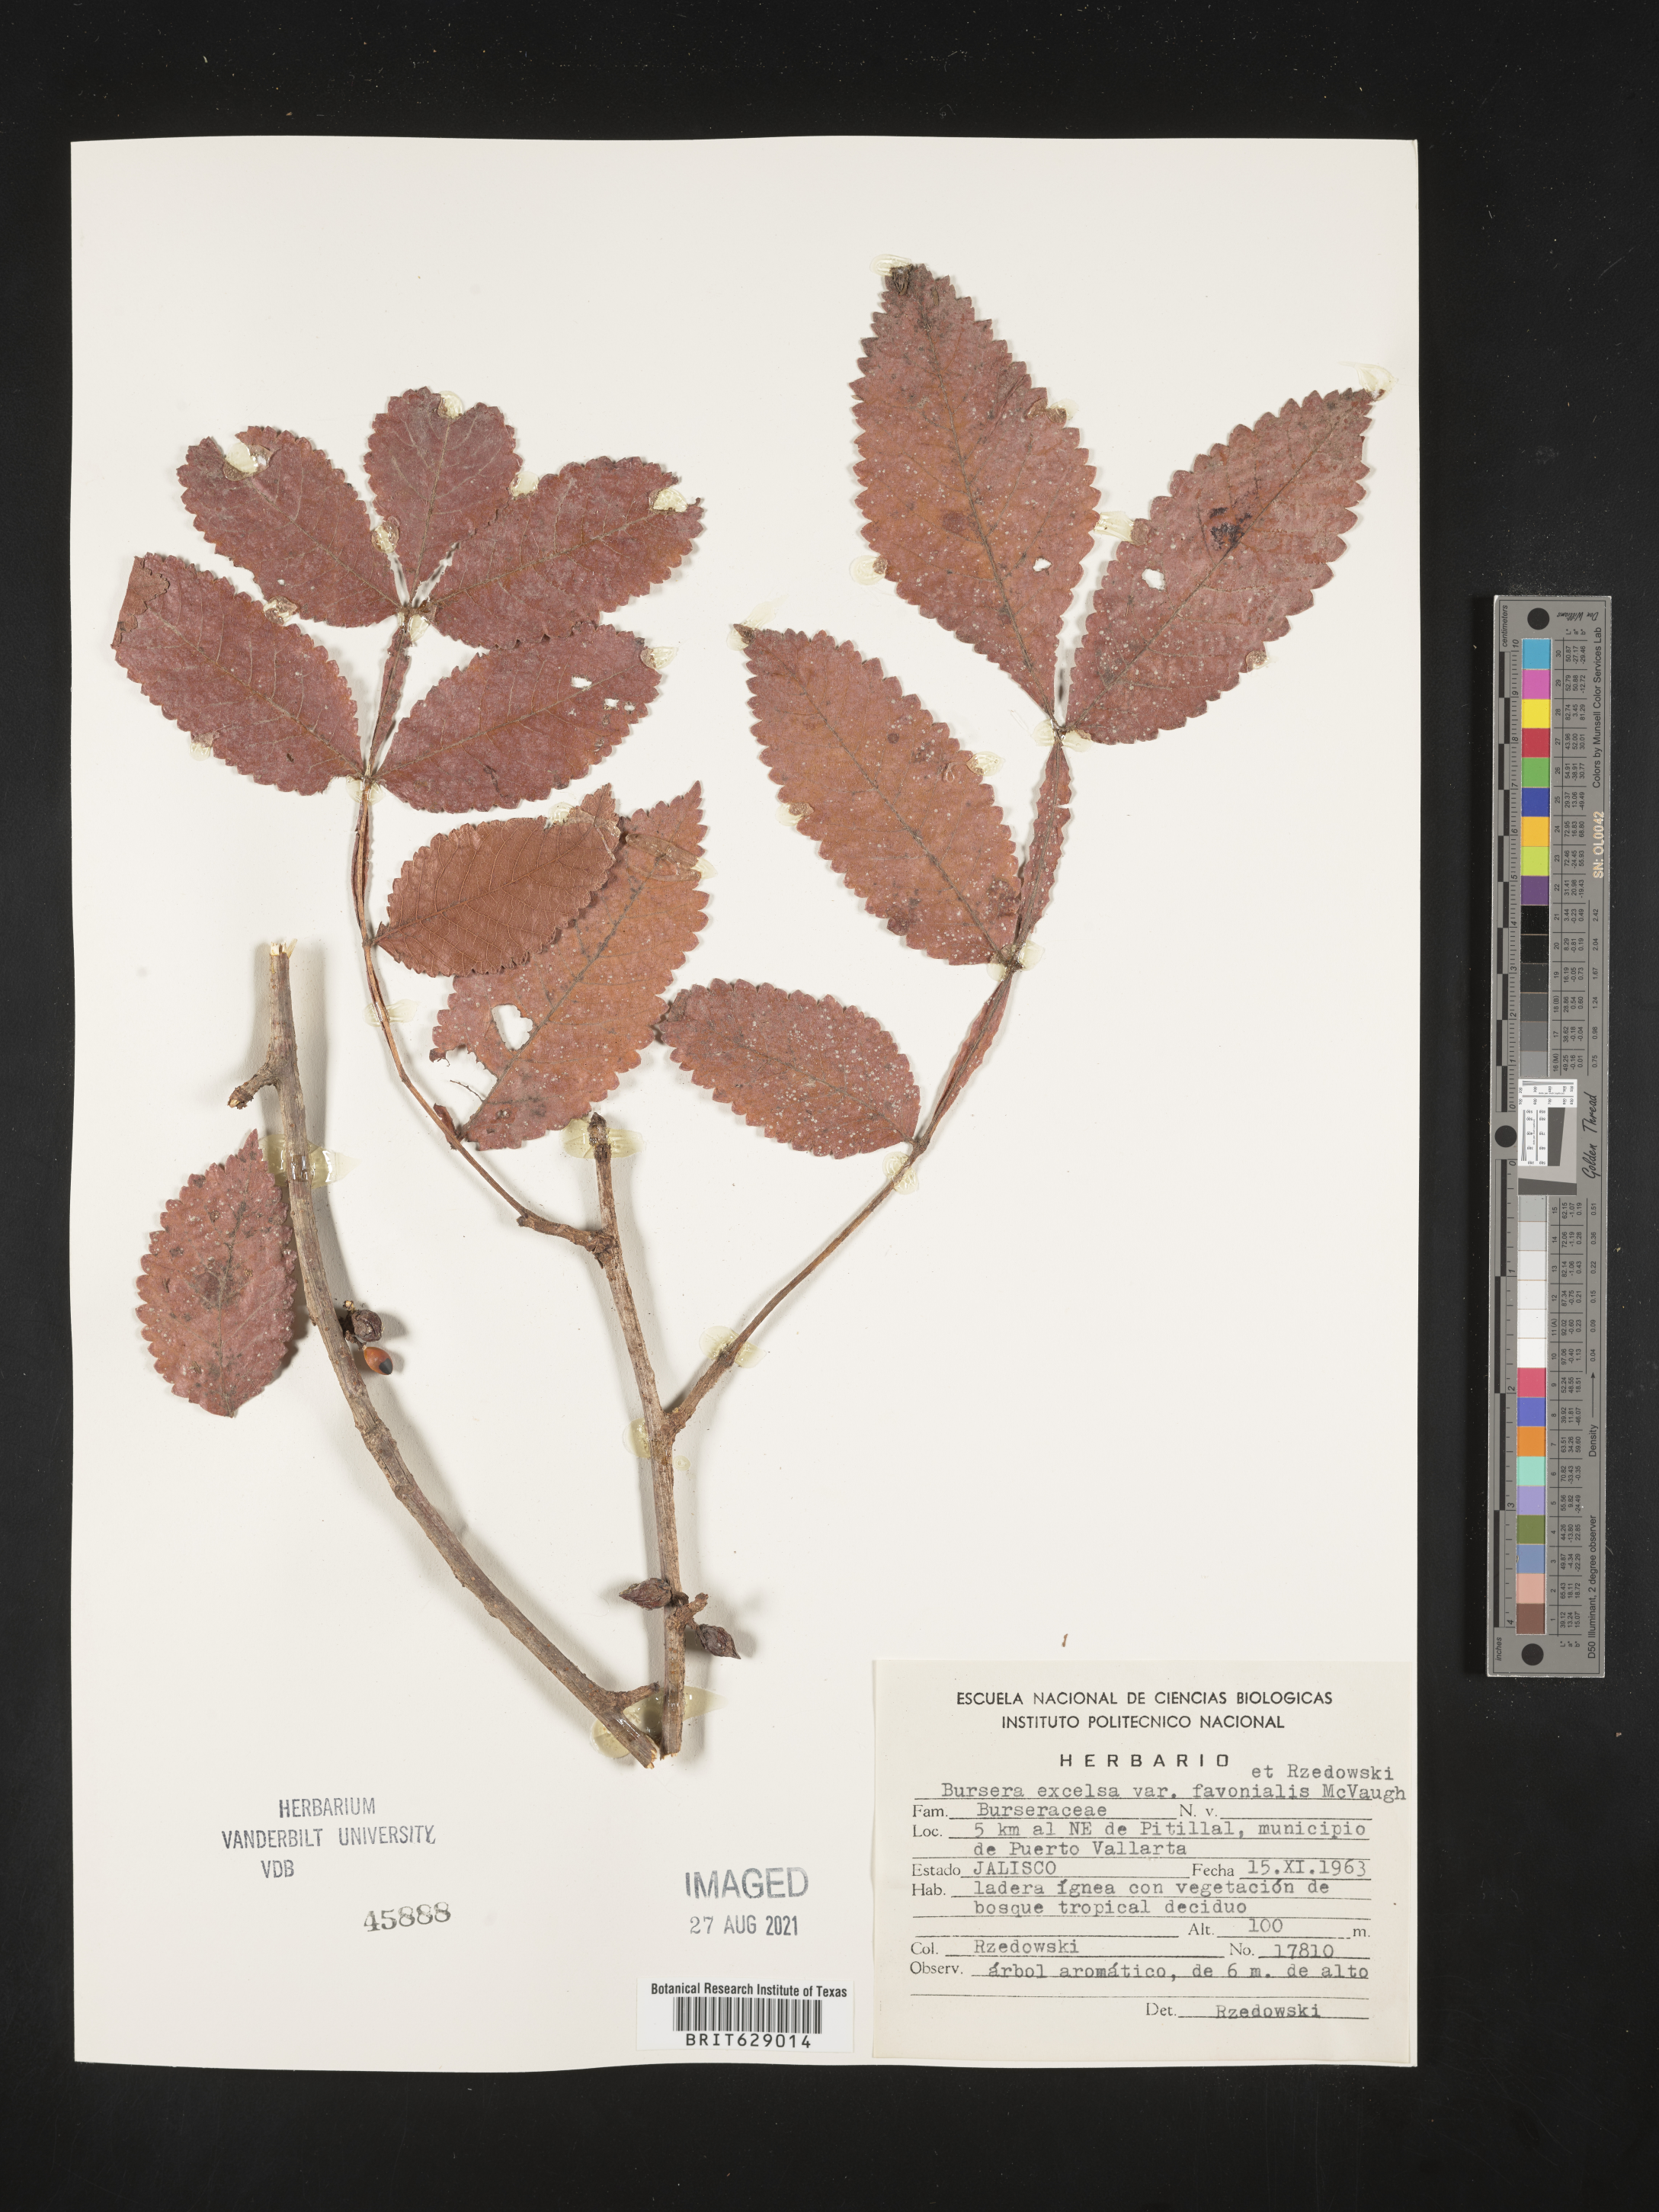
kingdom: Plantae
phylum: Tracheophyta
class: Magnoliopsida
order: Sapindales
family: Burseraceae
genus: Bursera
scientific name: Bursera
